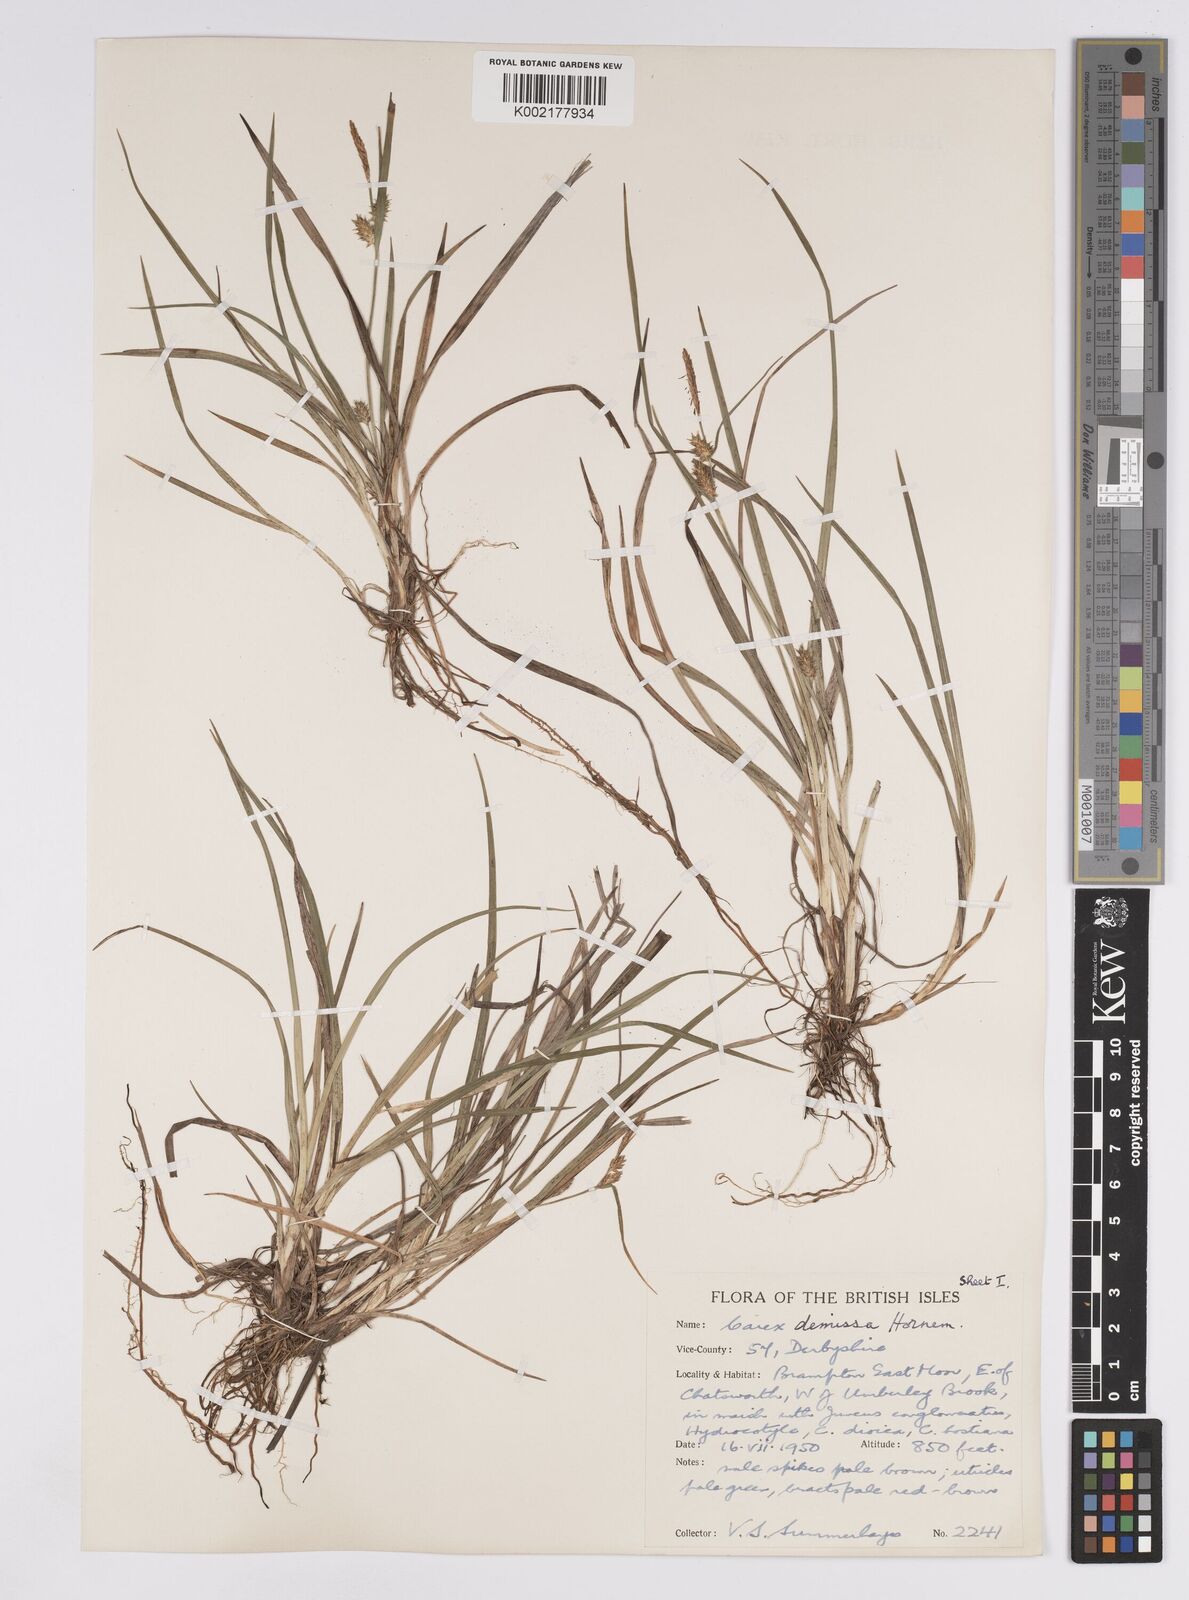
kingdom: Plantae
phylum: Tracheophyta
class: Liliopsida
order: Poales
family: Cyperaceae
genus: Carex
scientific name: Carex demissa
